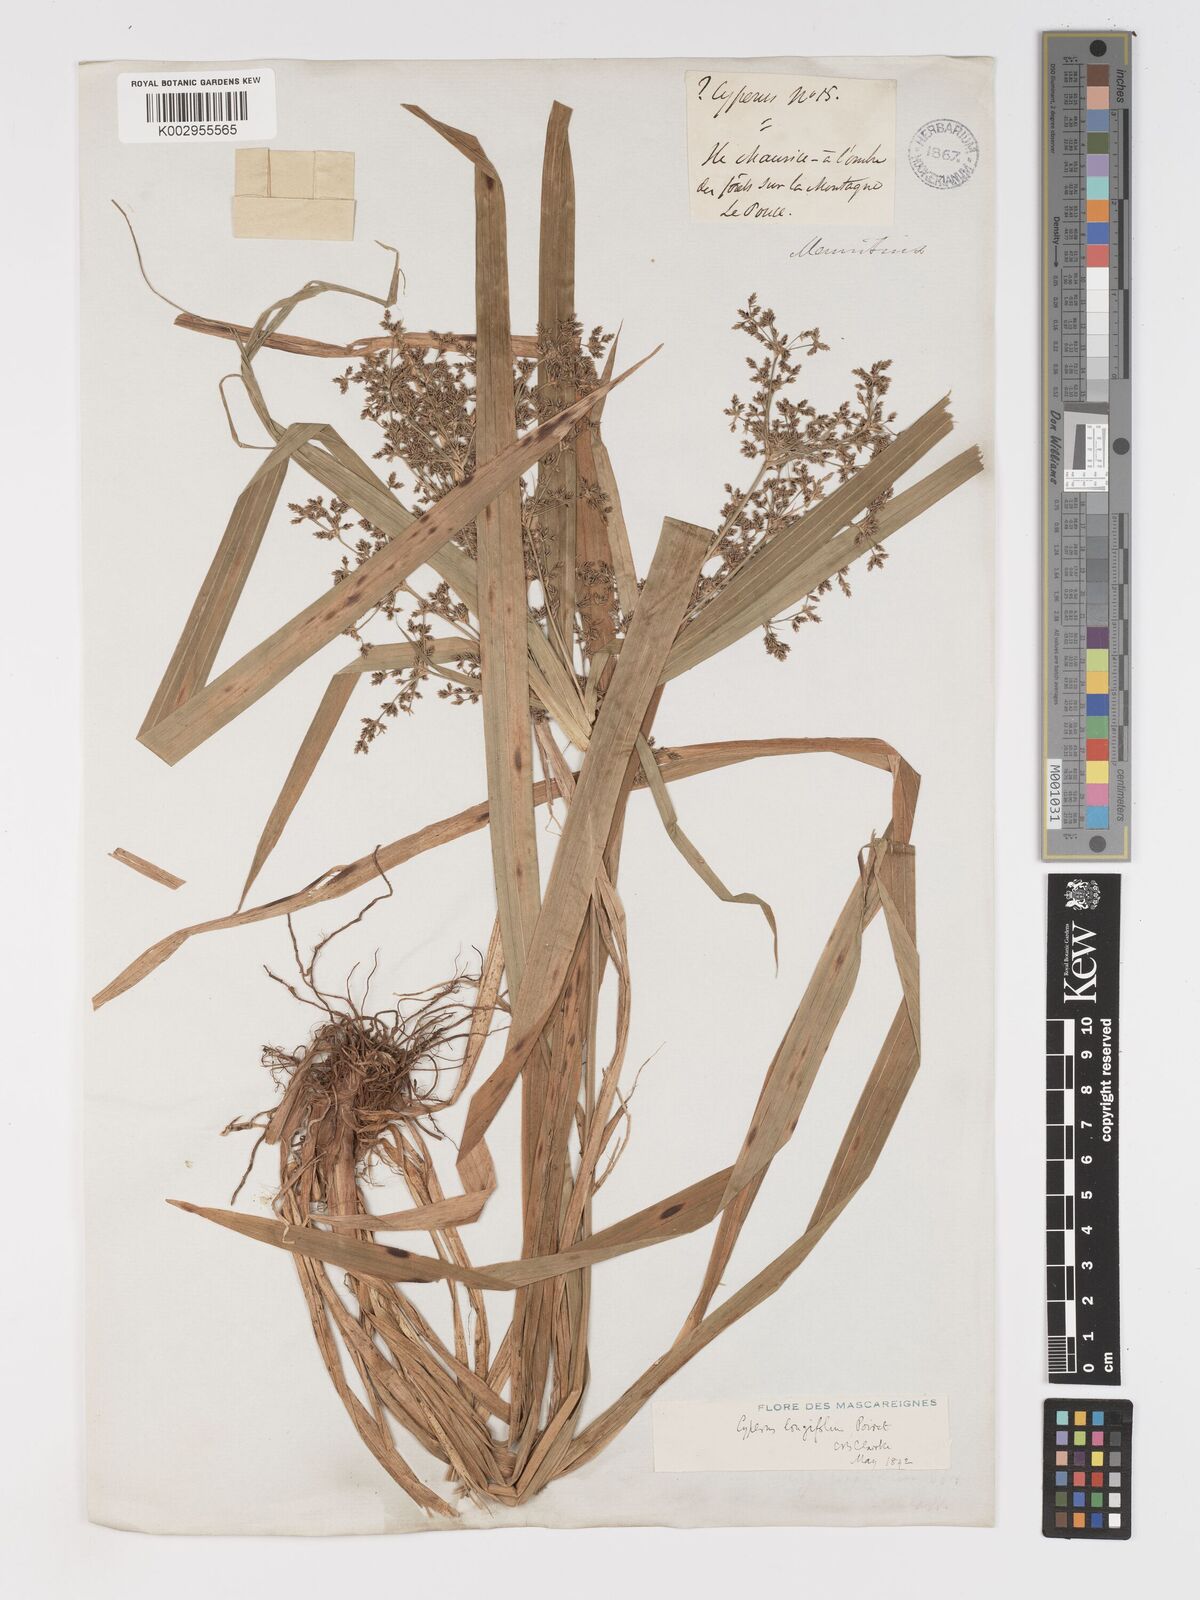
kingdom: Plantae
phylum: Tracheophyta
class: Liliopsida
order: Poales
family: Cyperaceae
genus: Cyperus
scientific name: Cyperus longifolius
